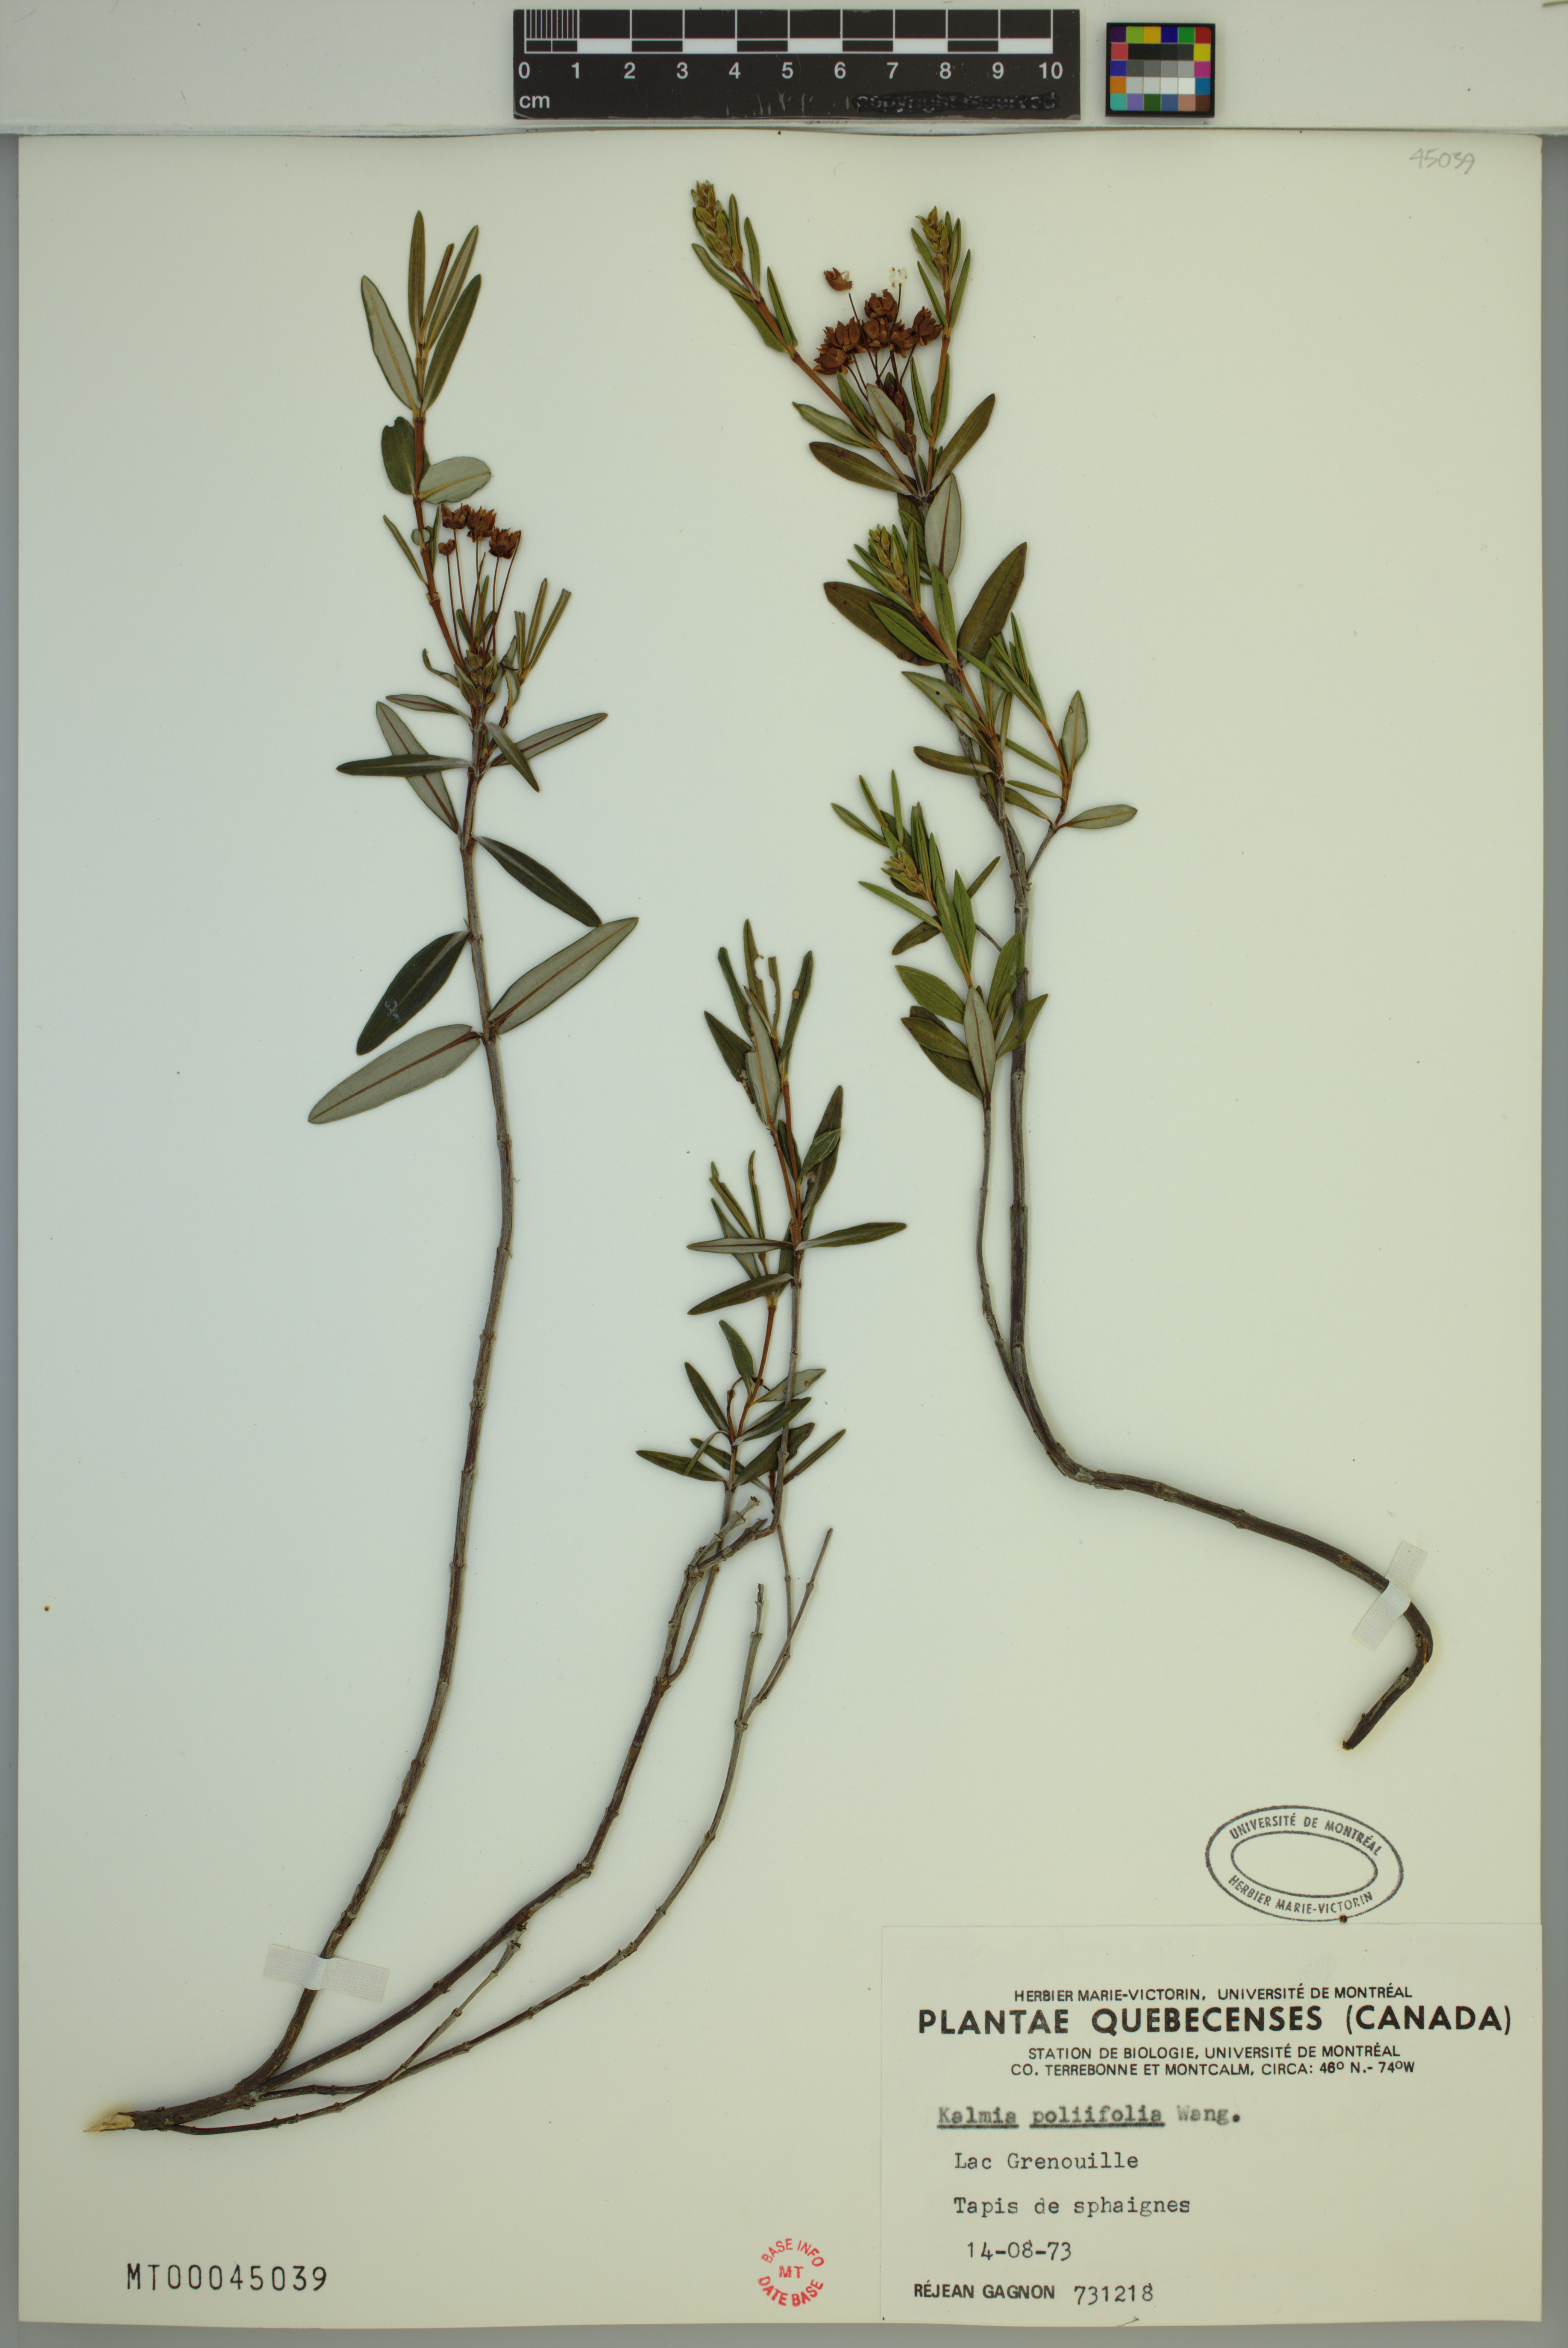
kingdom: Plantae
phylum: Tracheophyta
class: Magnoliopsida
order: Ericales
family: Ericaceae
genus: Kalmia
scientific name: Kalmia polifolia
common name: Bog-laurel
